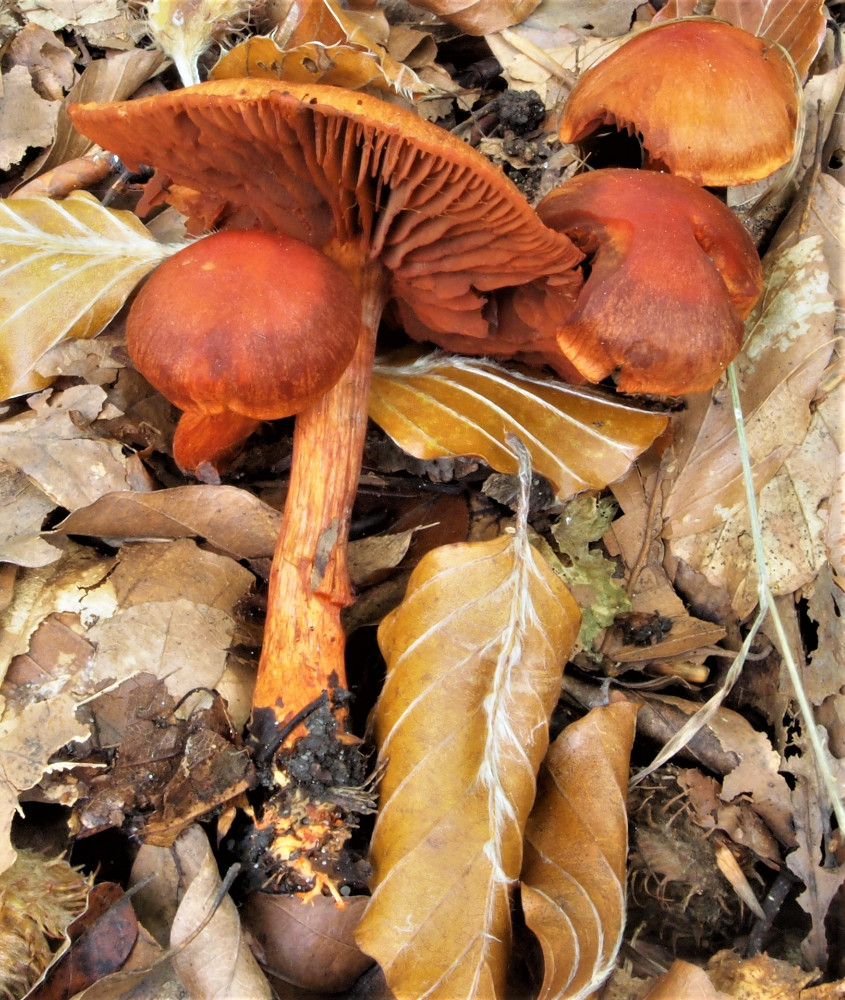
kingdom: Fungi
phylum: Basidiomycota
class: Agaricomycetes
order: Agaricales
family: Cortinariaceae
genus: Cortinarius
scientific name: Cortinarius cinnabarinus
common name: cinnober-slørhat
